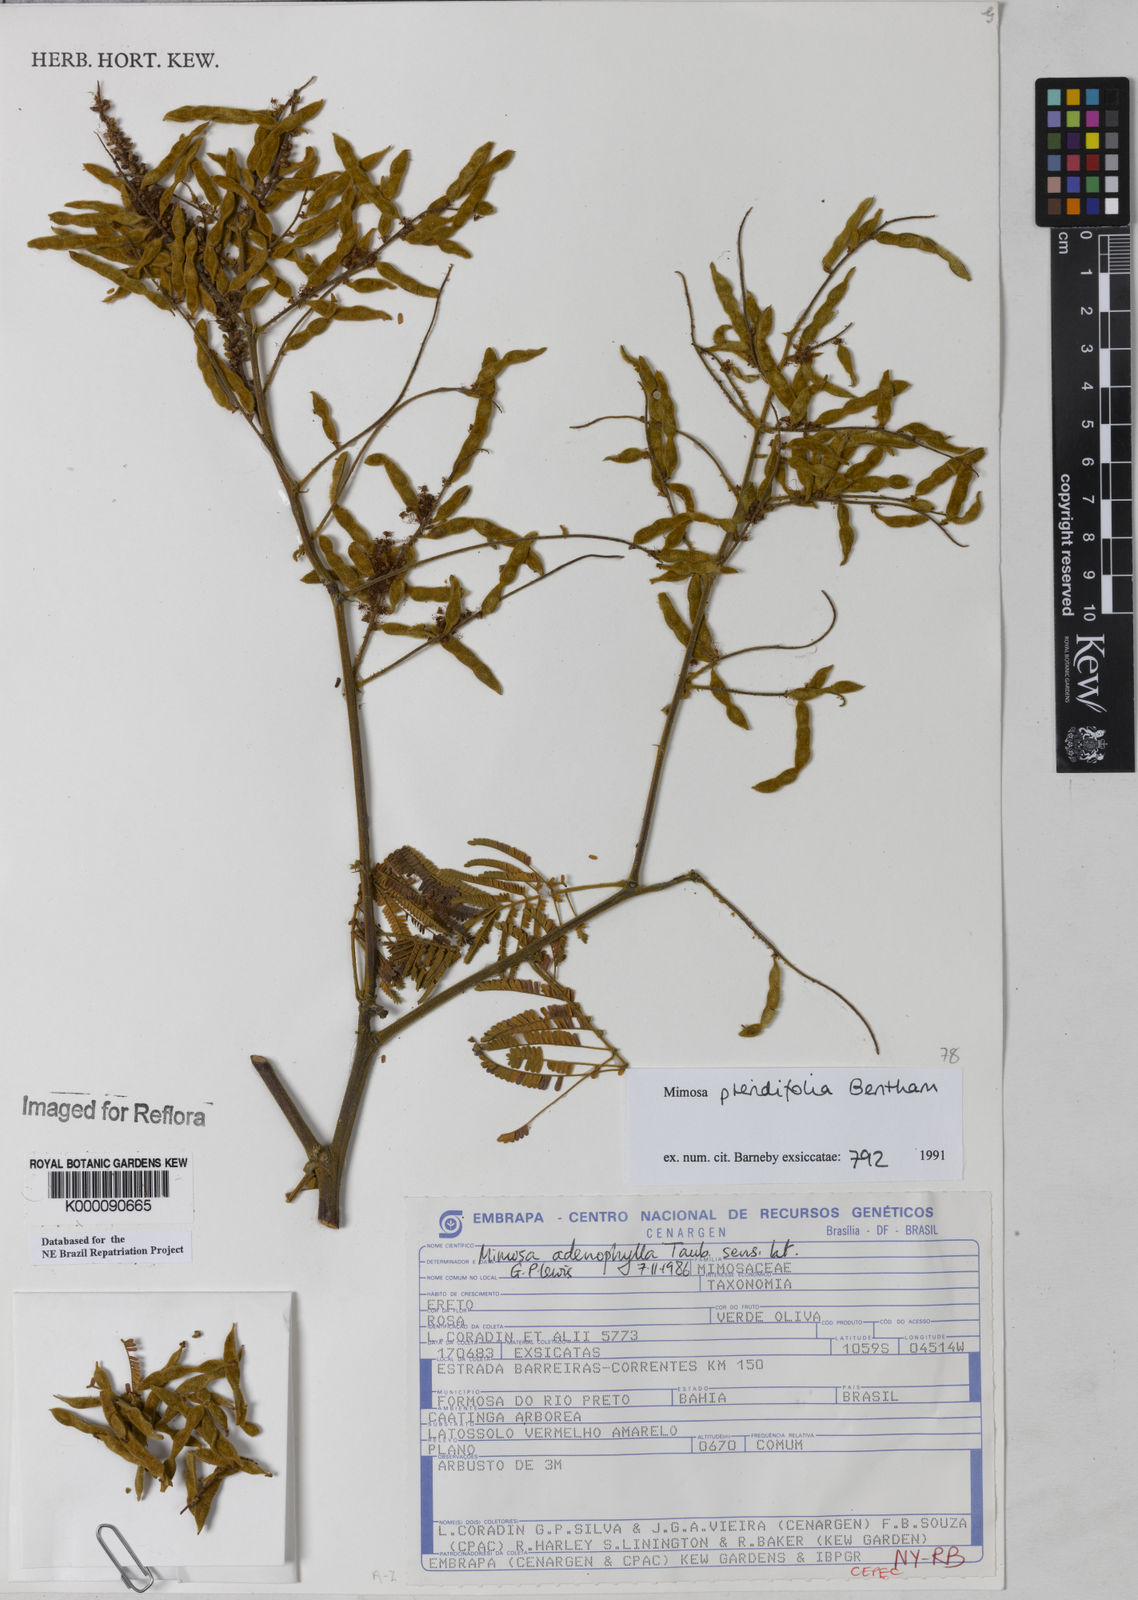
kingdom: Plantae
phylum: Tracheophyta
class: Magnoliopsida
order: Fabales
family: Fabaceae
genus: Mimosa
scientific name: Mimosa pteridifolia
